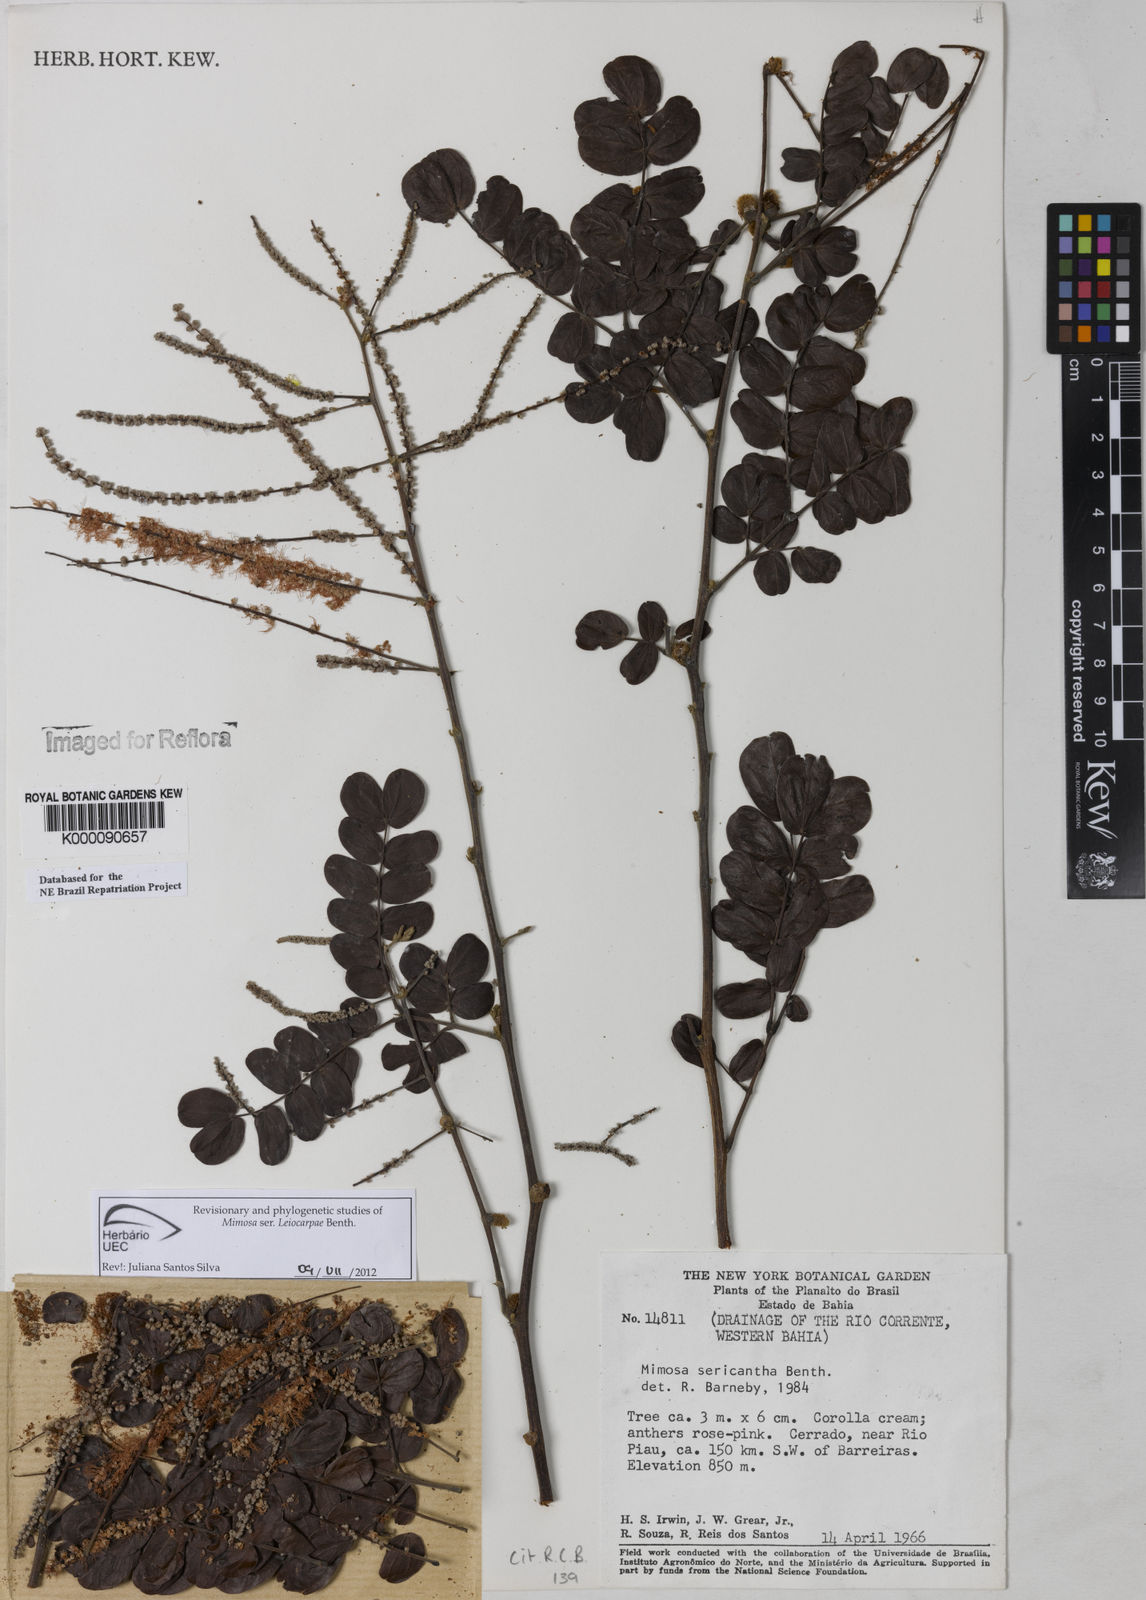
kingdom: Plantae
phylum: Tracheophyta
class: Magnoliopsida
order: Fabales
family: Fabaceae
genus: Mimosa
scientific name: Mimosa sericantha
